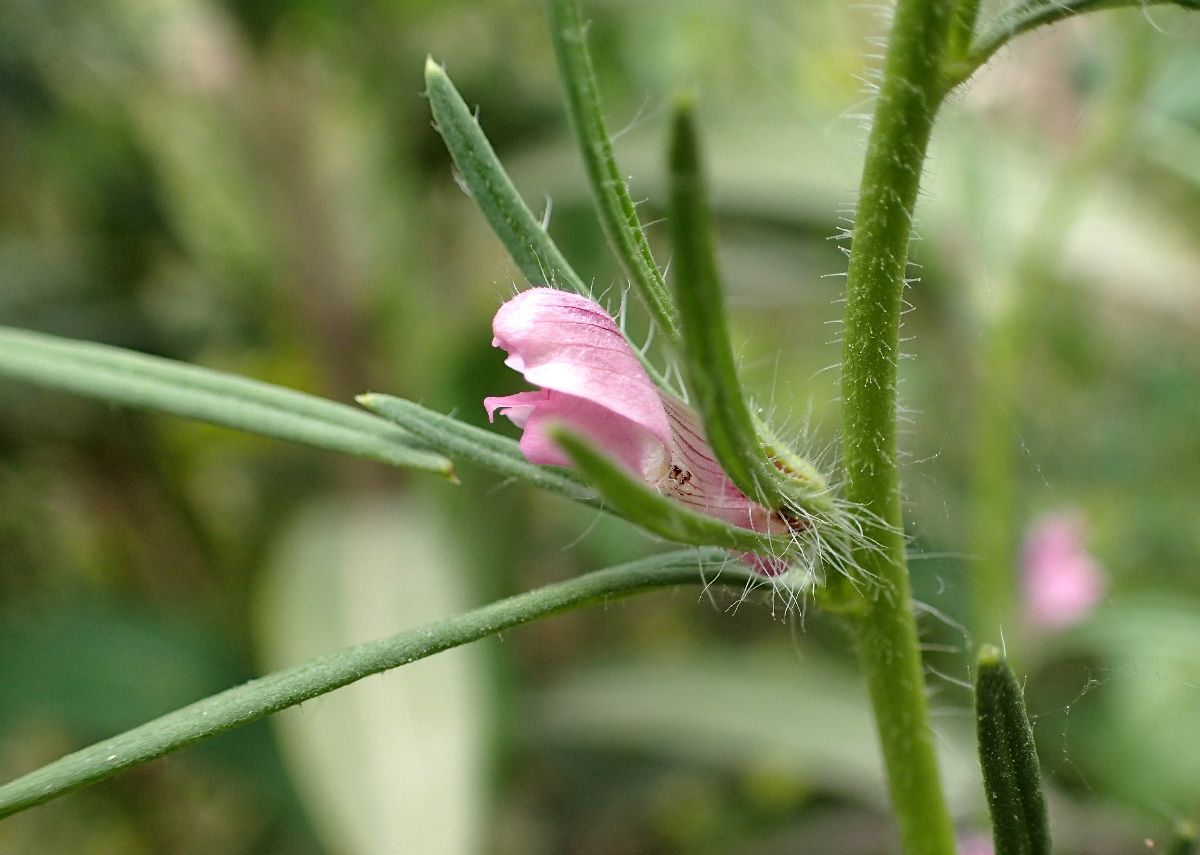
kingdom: Plantae
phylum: Tracheophyta
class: Magnoliopsida
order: Lamiales
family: Plantaginaceae
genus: Misopates
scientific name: Misopates orontium
